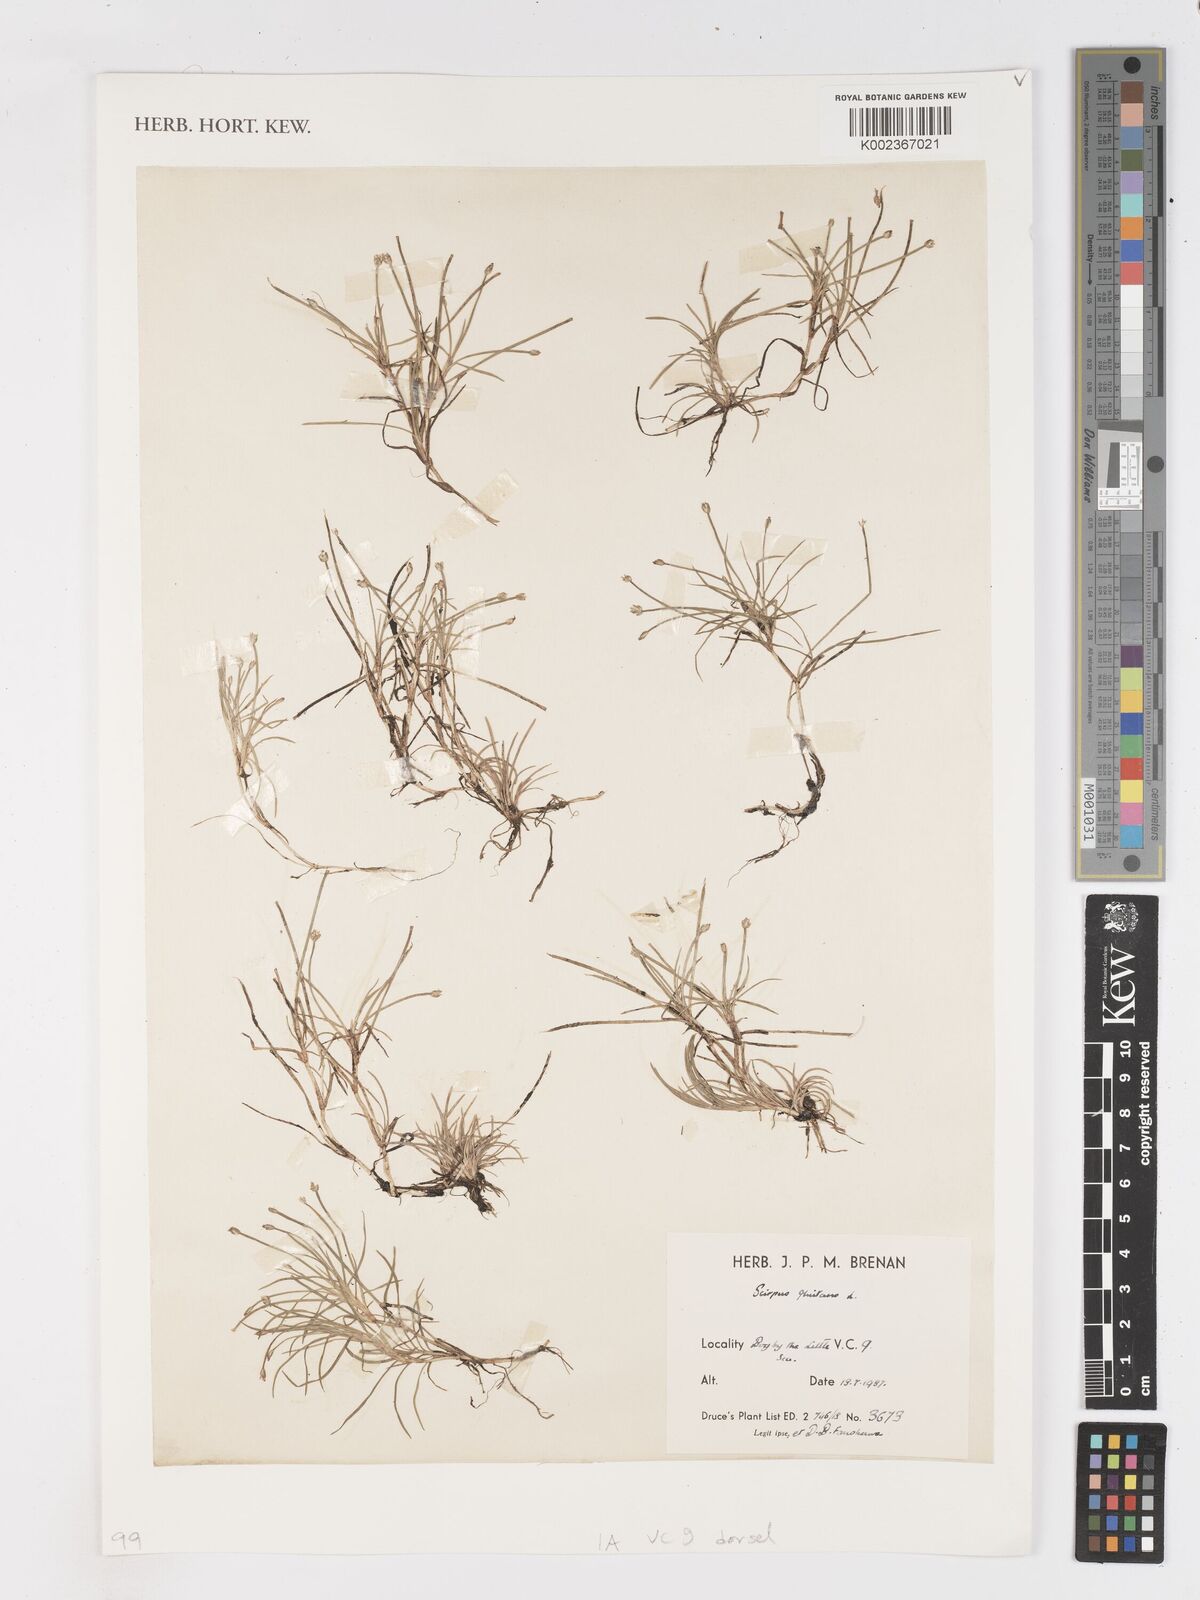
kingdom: Plantae
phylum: Tracheophyta
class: Liliopsida
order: Poales
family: Cyperaceae
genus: Isolepis
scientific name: Isolepis setacea
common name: Bristle club-rush
